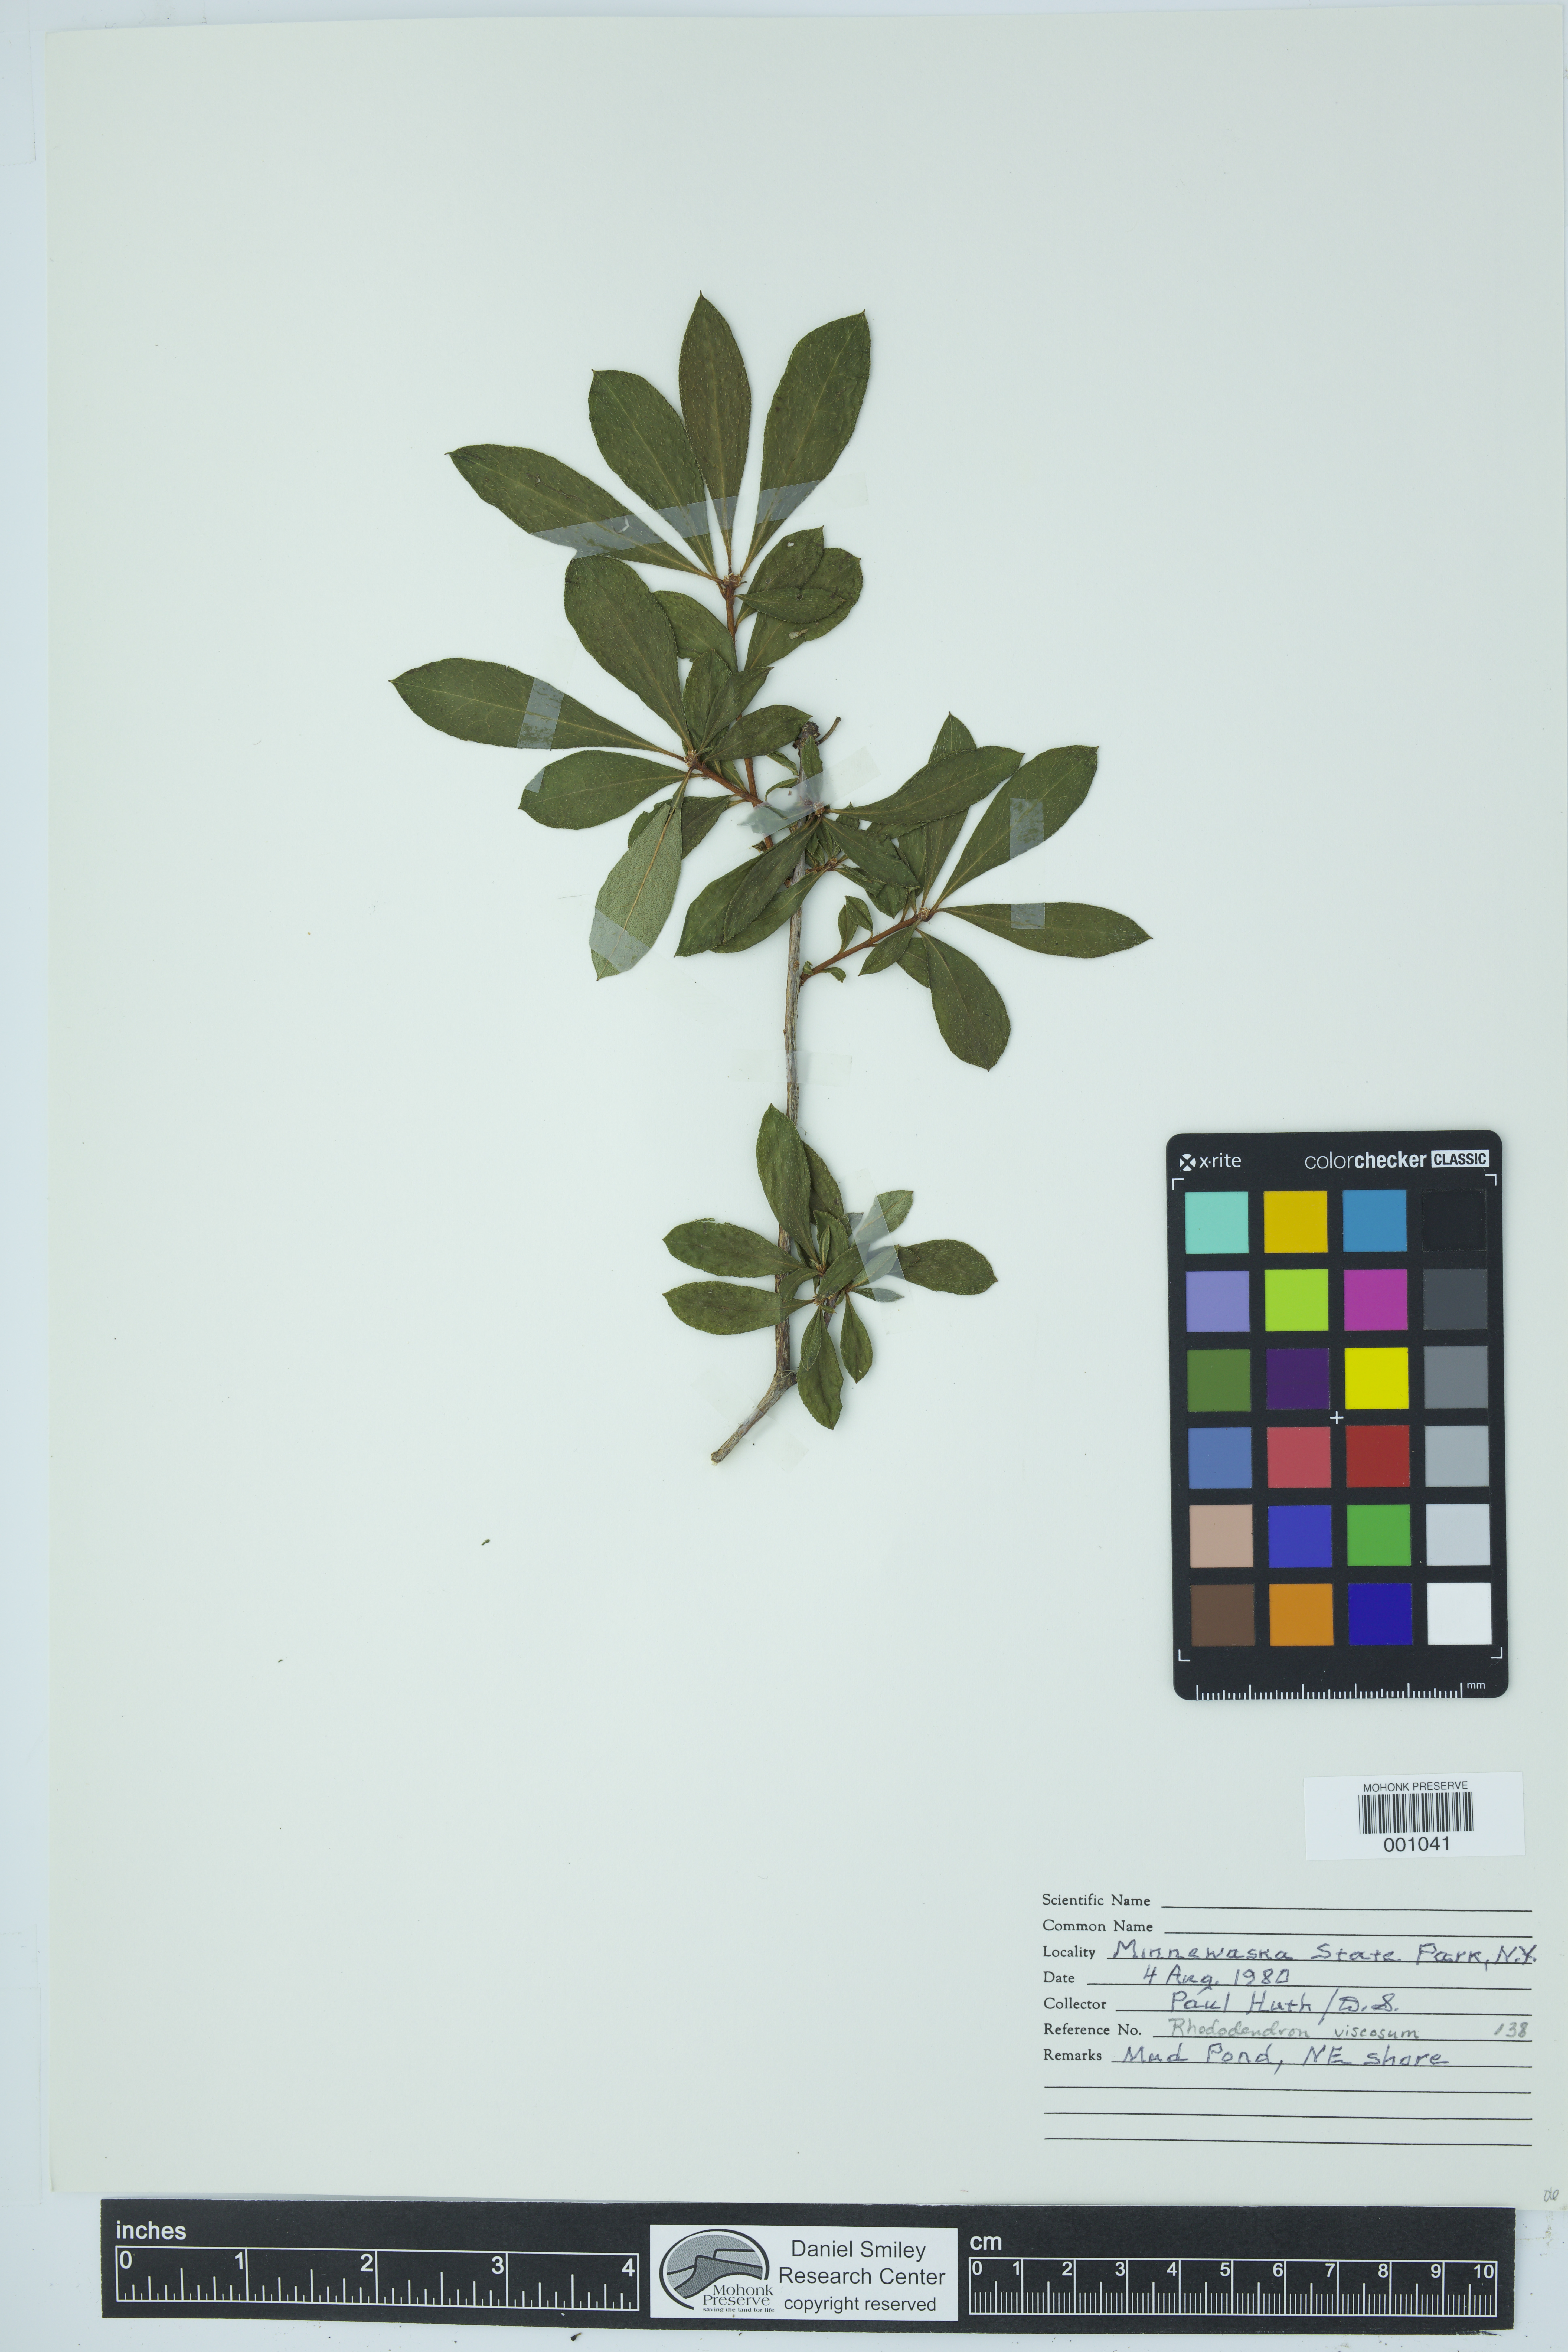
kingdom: Plantae
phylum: Tracheophyta
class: Magnoliopsida
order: Ericales
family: Ericaceae
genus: Rhododendron
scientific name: Rhododendron viscosum
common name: Clammy azalea
